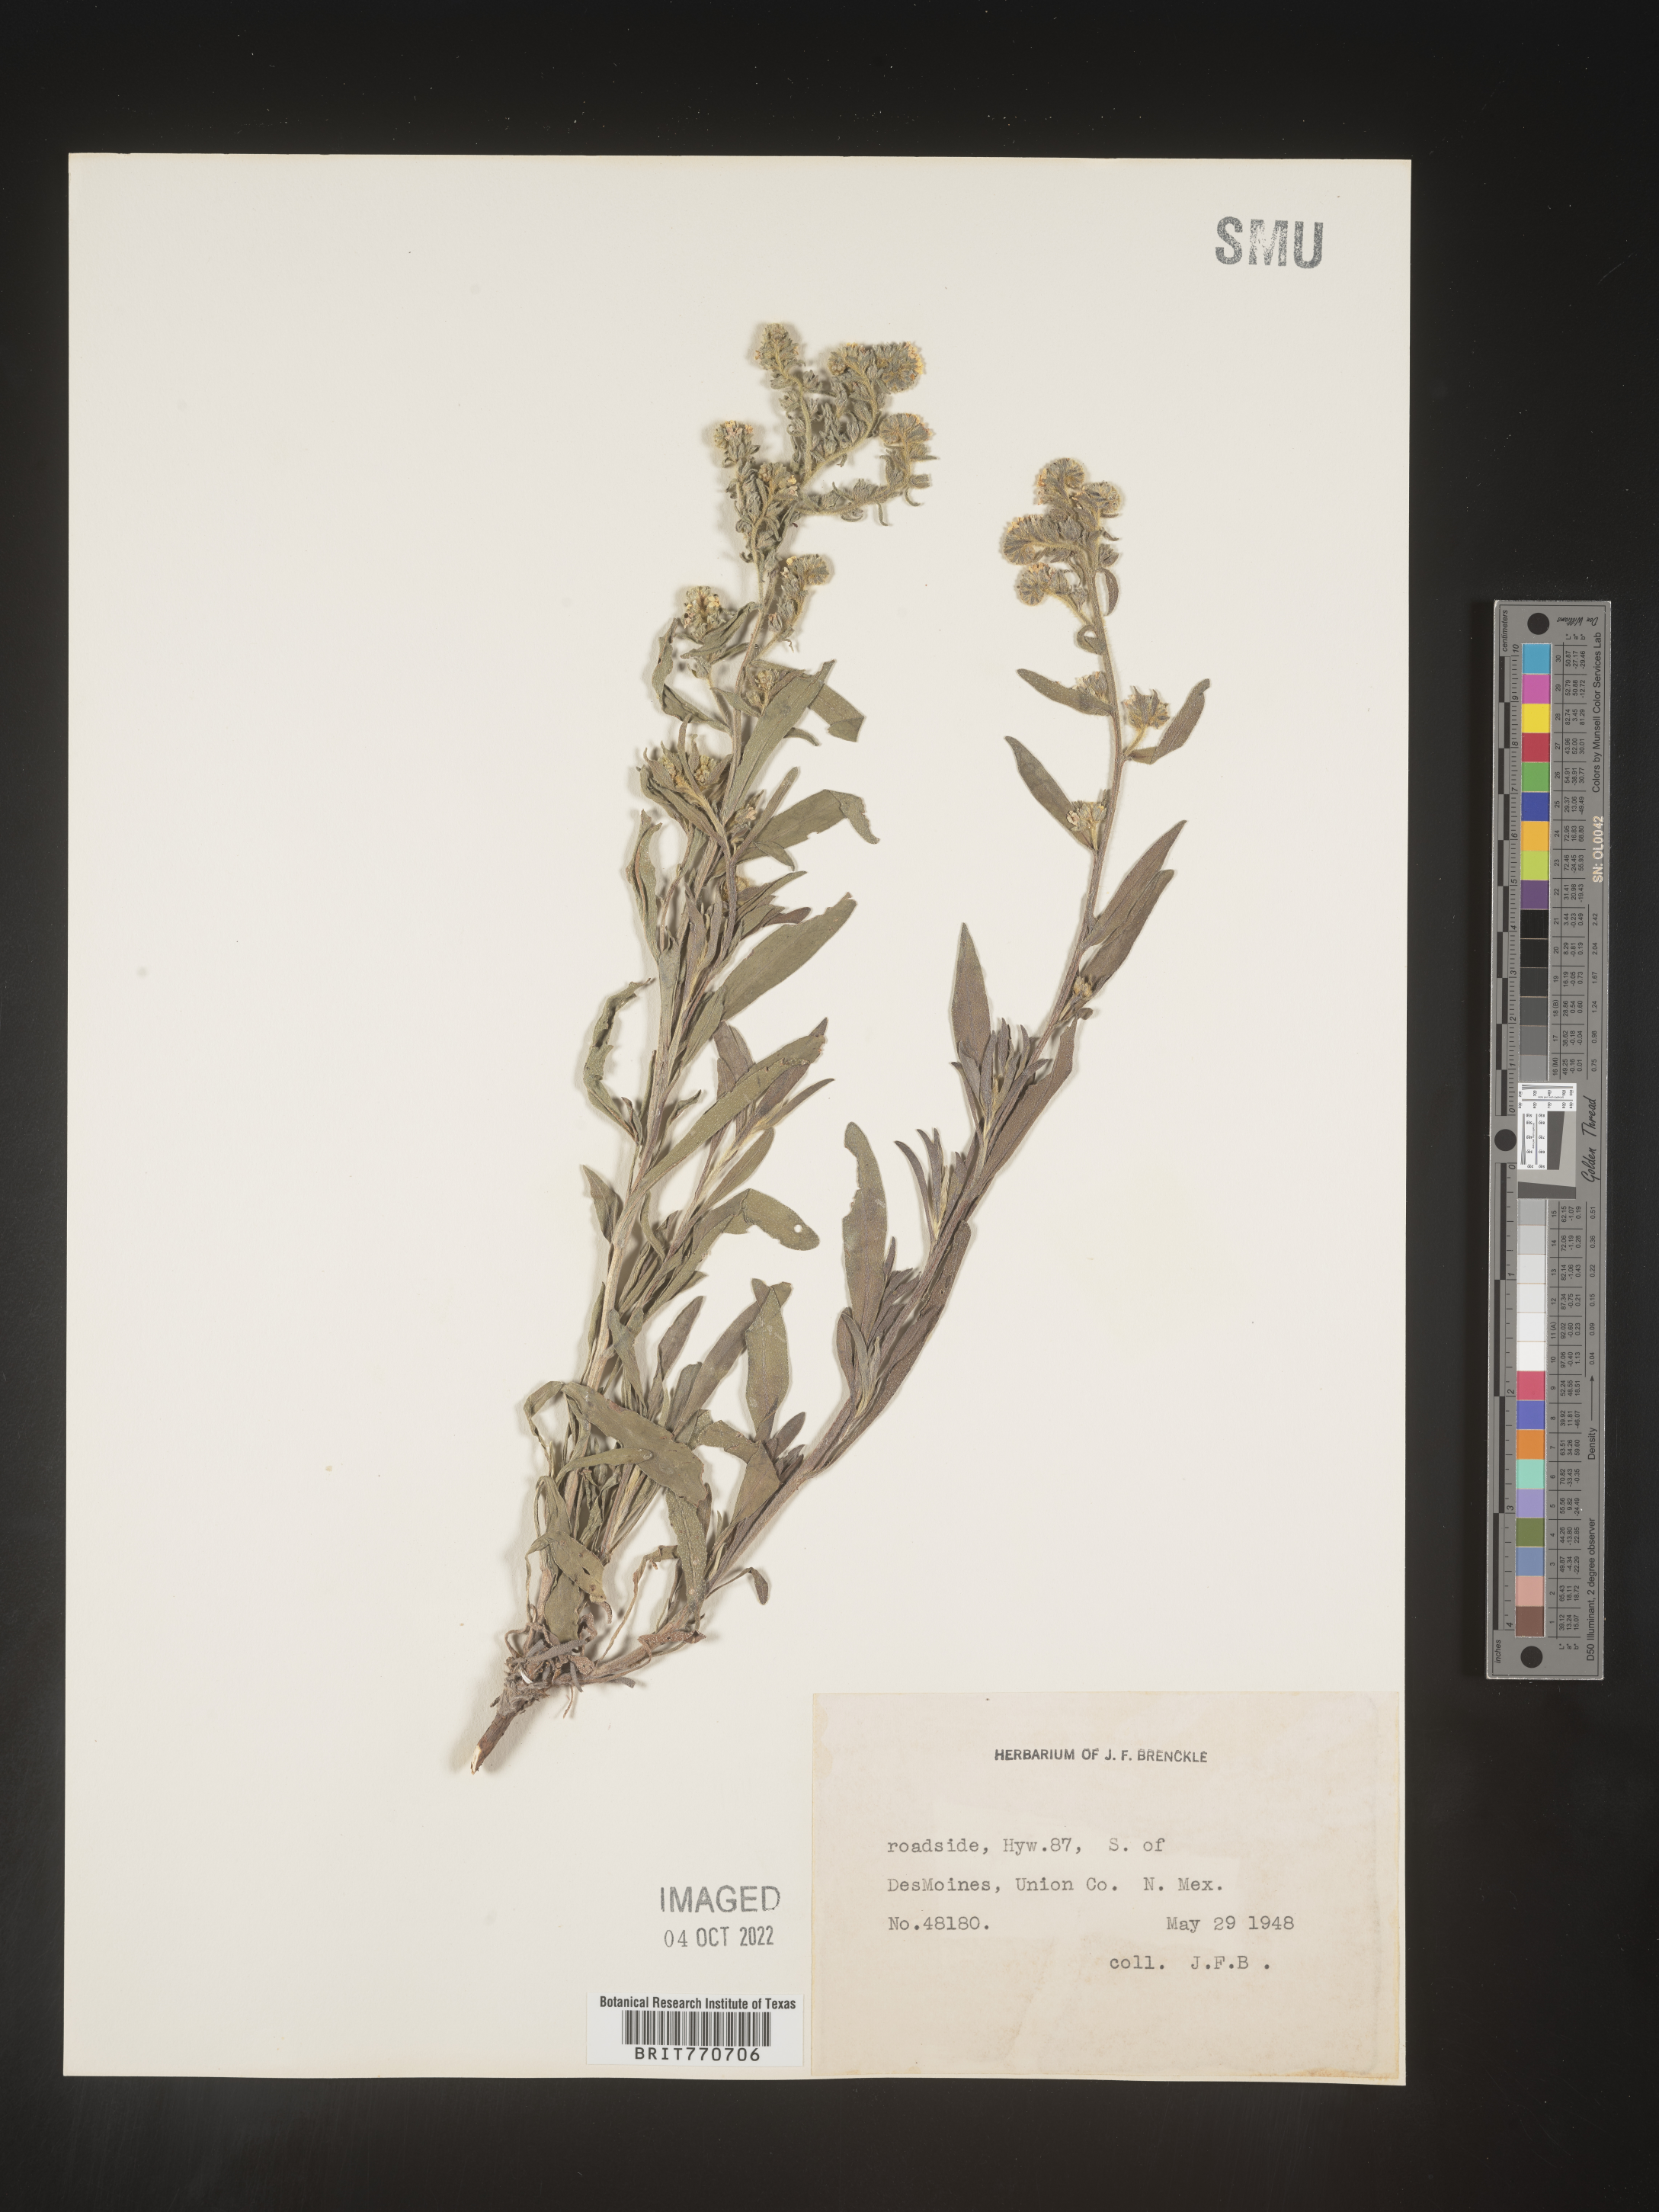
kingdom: Plantae
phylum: Tracheophyta
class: Magnoliopsida
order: Boraginales
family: Boraginaceae
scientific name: Boraginaceae
